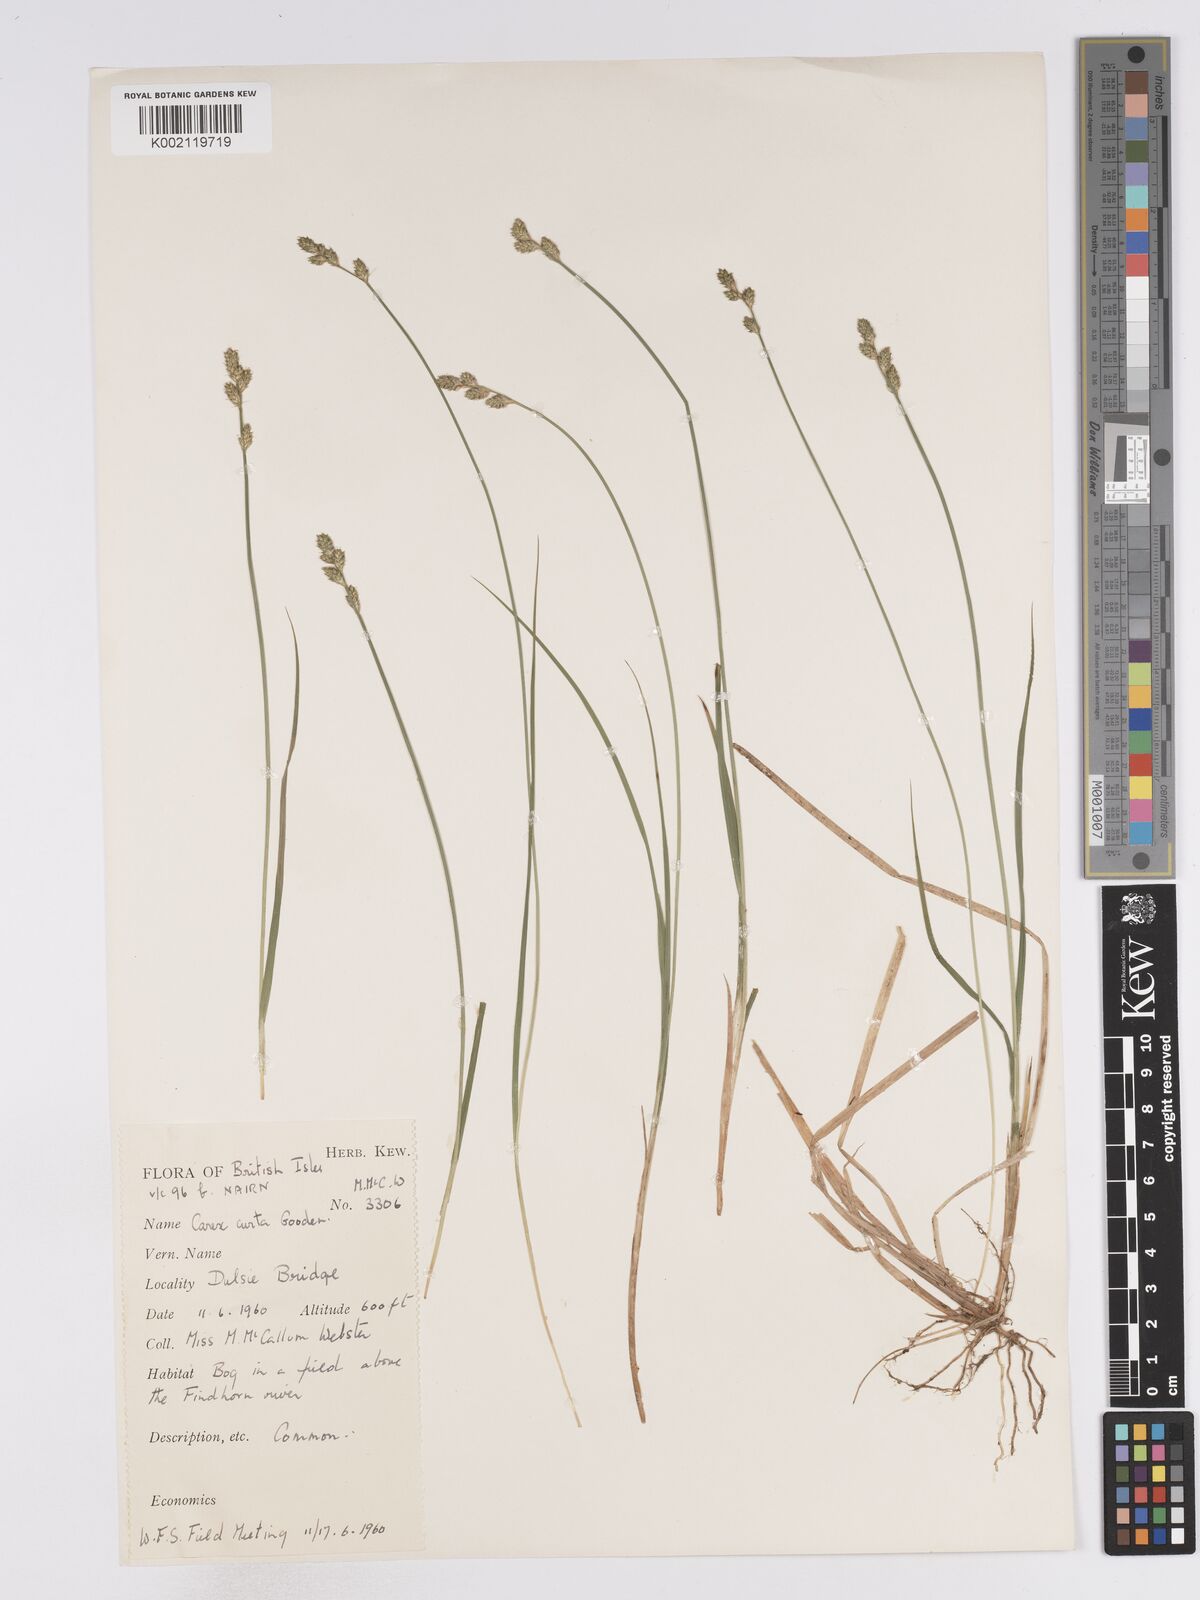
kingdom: Plantae
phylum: Tracheophyta
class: Liliopsida
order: Poales
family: Cyperaceae
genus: Carex
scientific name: Carex curta
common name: White sedge
